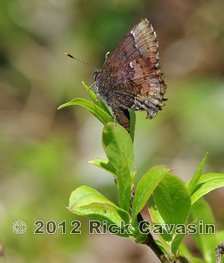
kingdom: Animalia
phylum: Arthropoda
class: Insecta
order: Lepidoptera
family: Lycaenidae
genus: Incisalia
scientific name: Incisalia henrici
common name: Henry's Elfin
